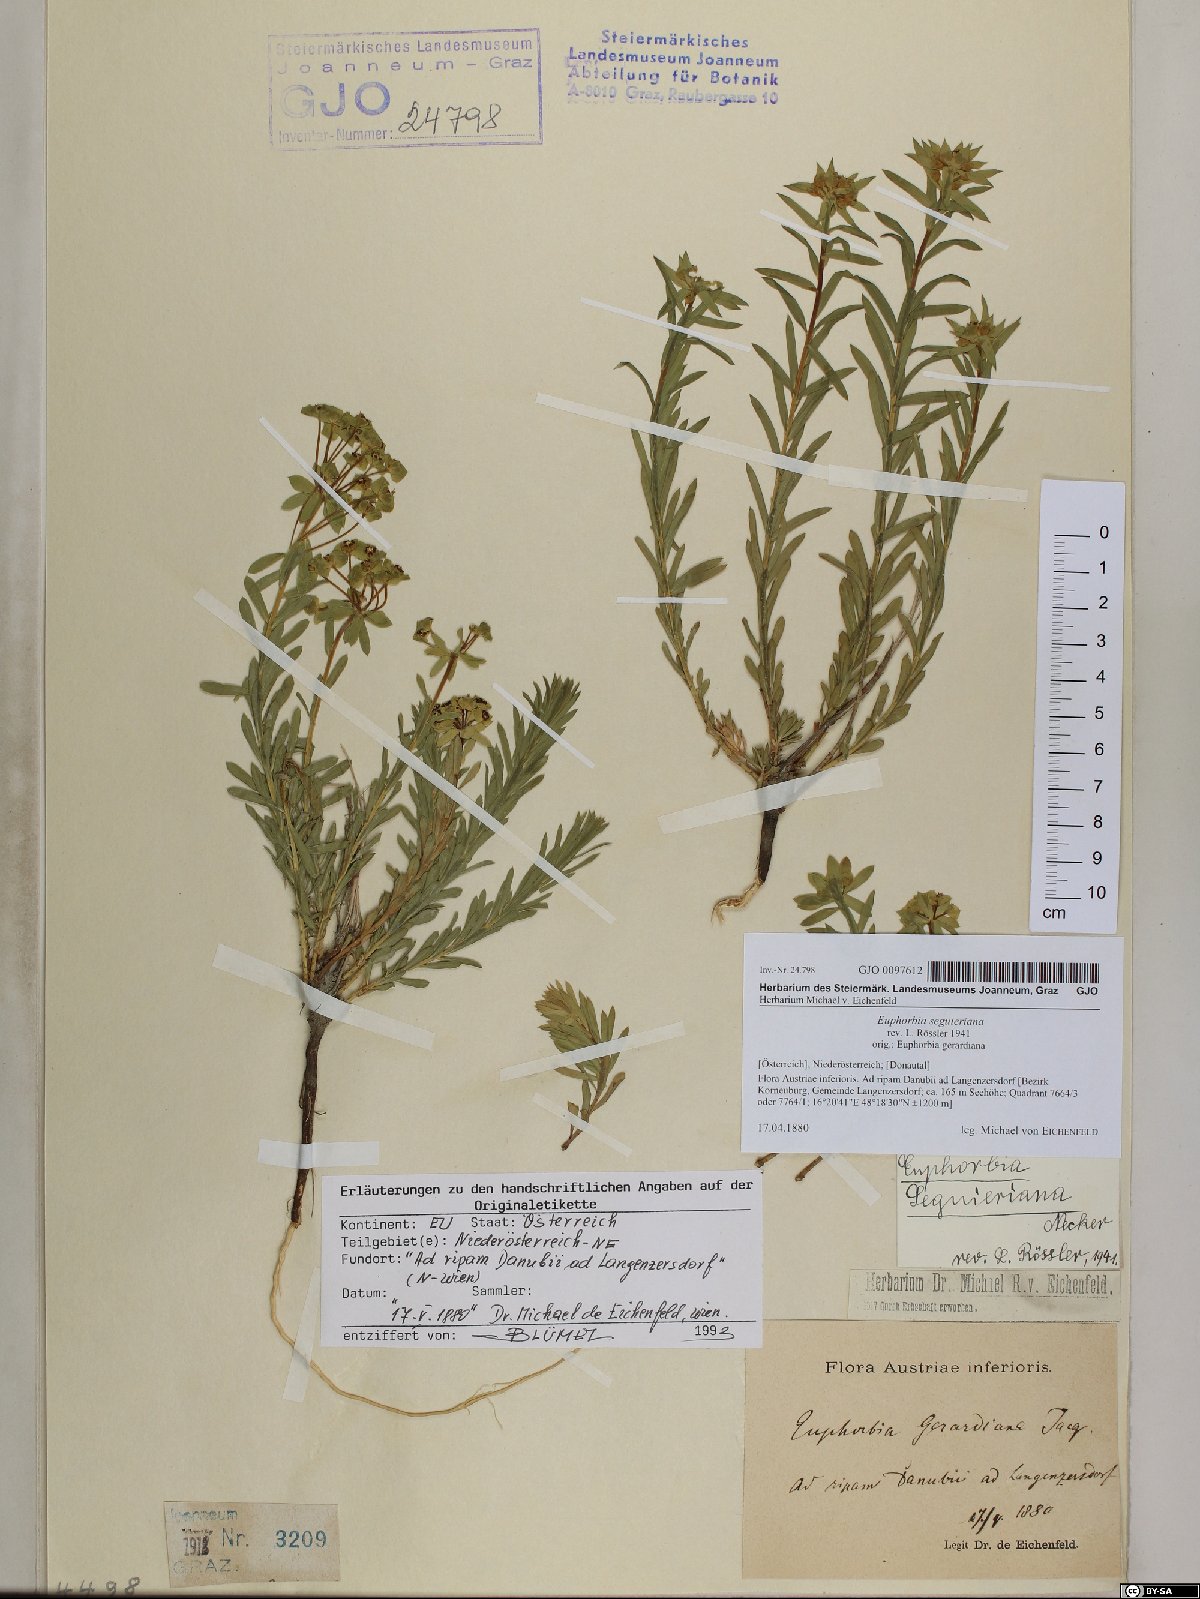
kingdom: Plantae
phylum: Tracheophyta
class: Magnoliopsida
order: Malpighiales
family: Euphorbiaceae
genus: Euphorbia
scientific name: Euphorbia seguieriana
